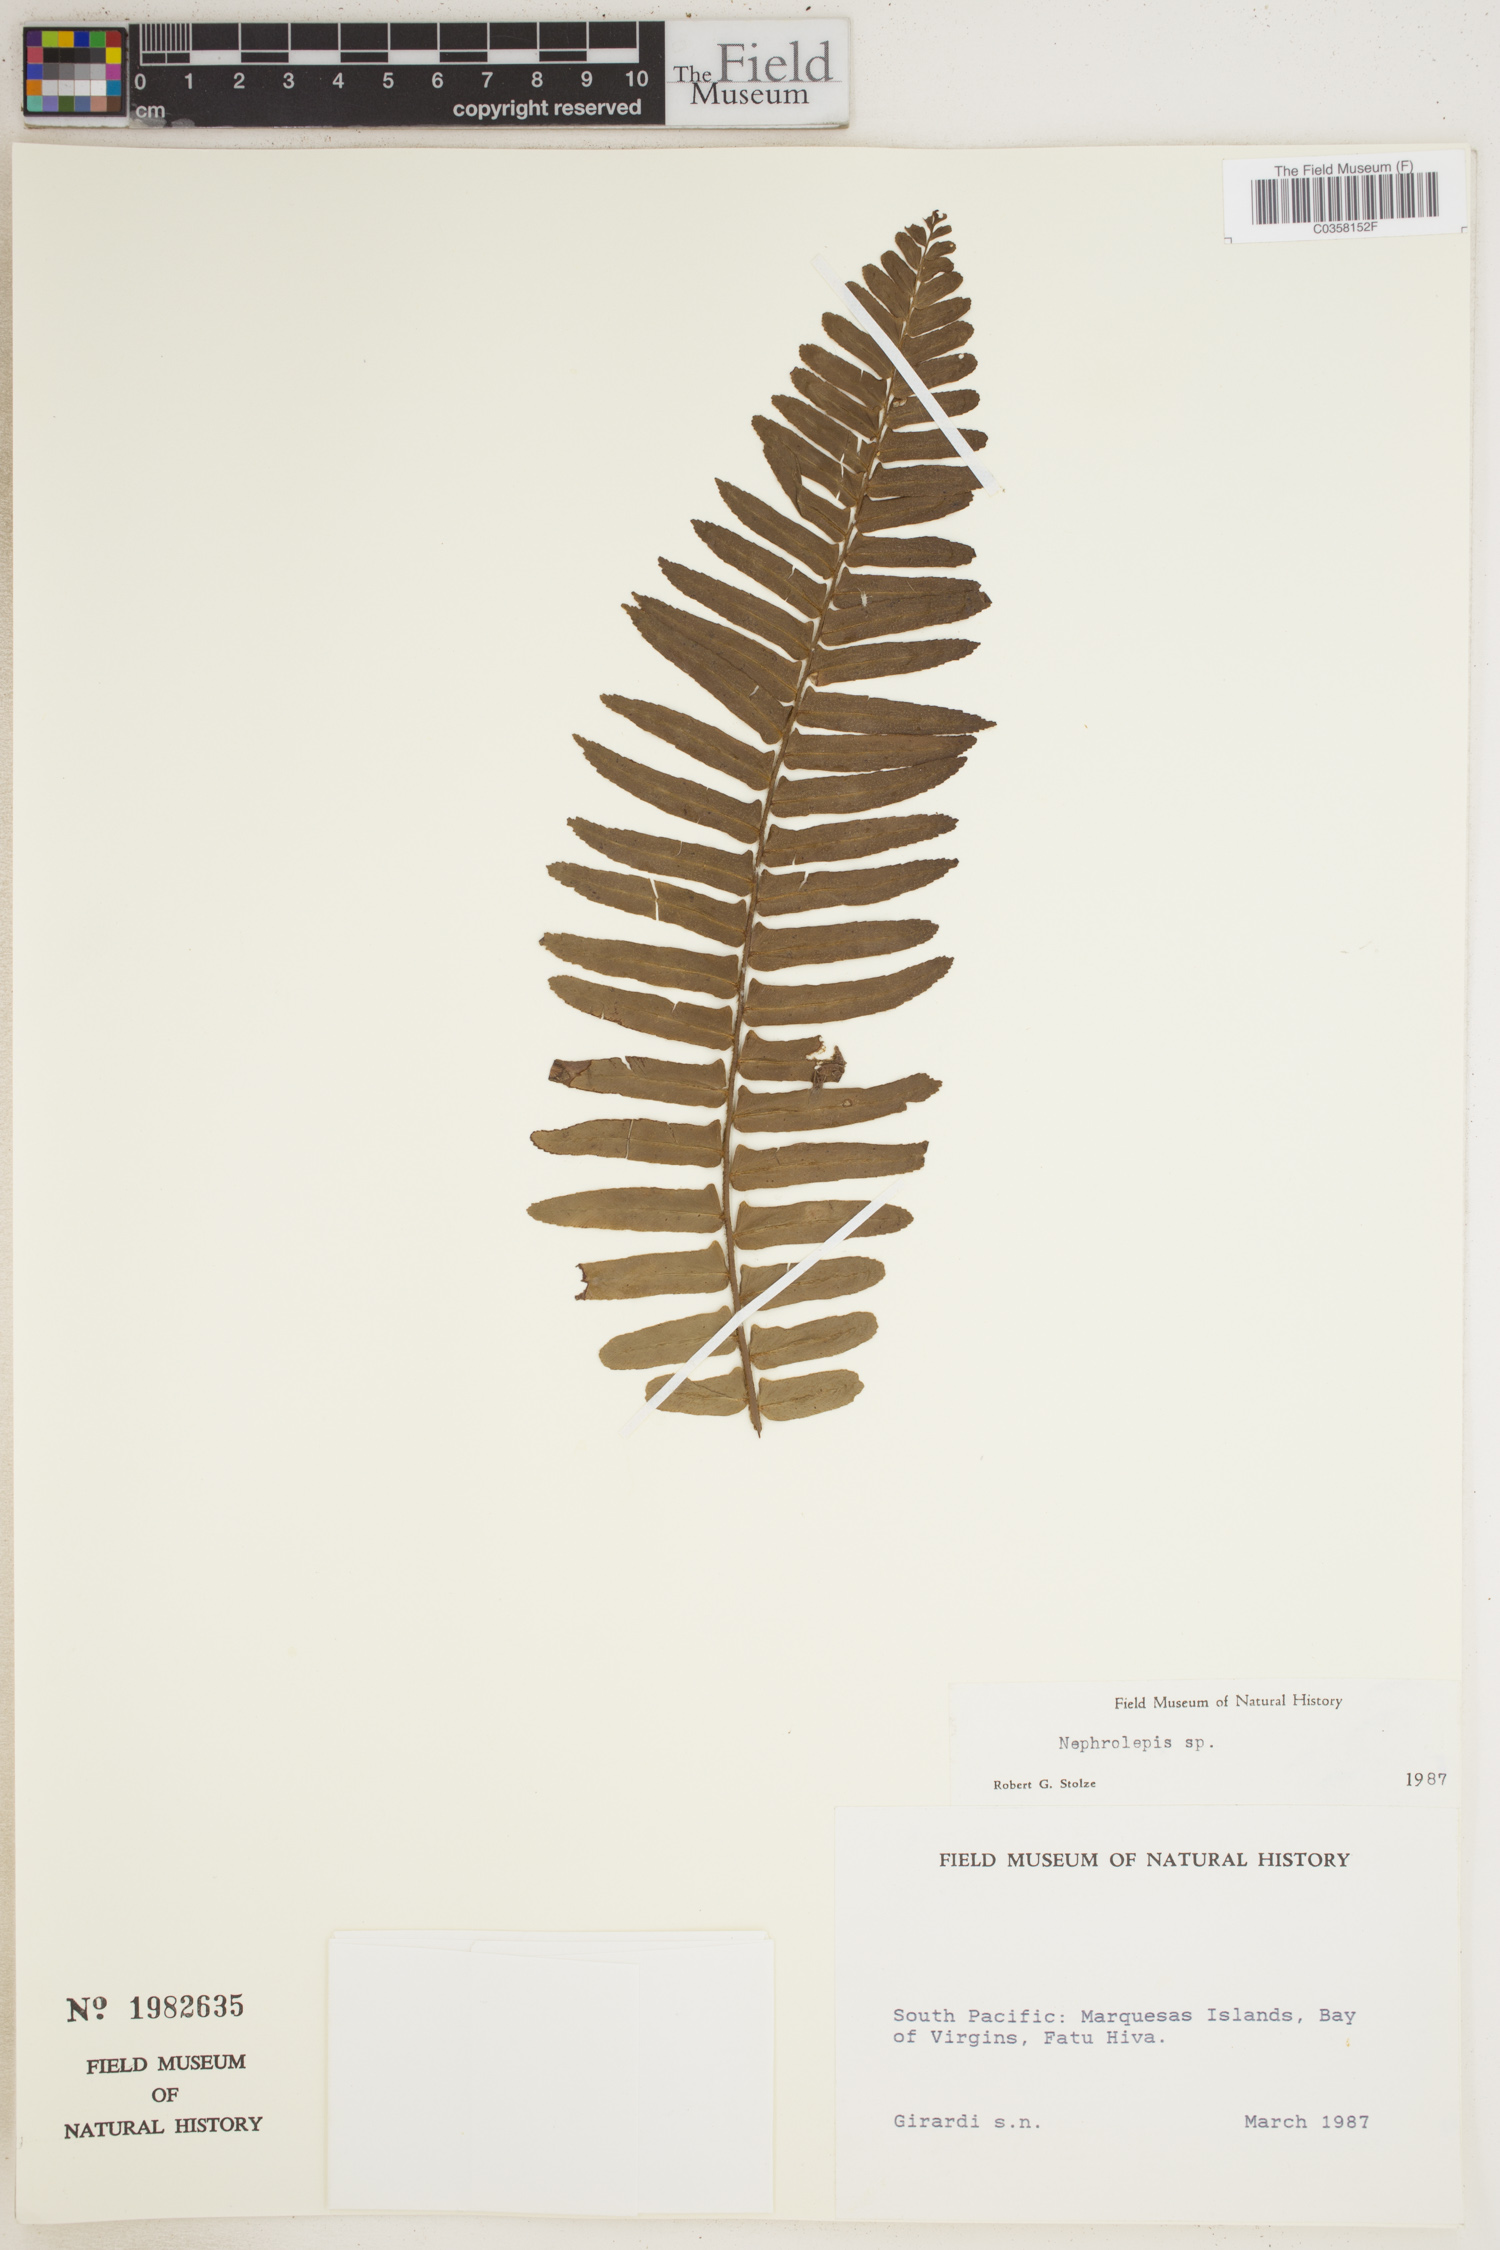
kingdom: Plantae
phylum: Tracheophyta
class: Polypodiopsida
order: Polypodiales
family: Nephrolepidaceae
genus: Nephrolepis
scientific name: Nephrolepis
